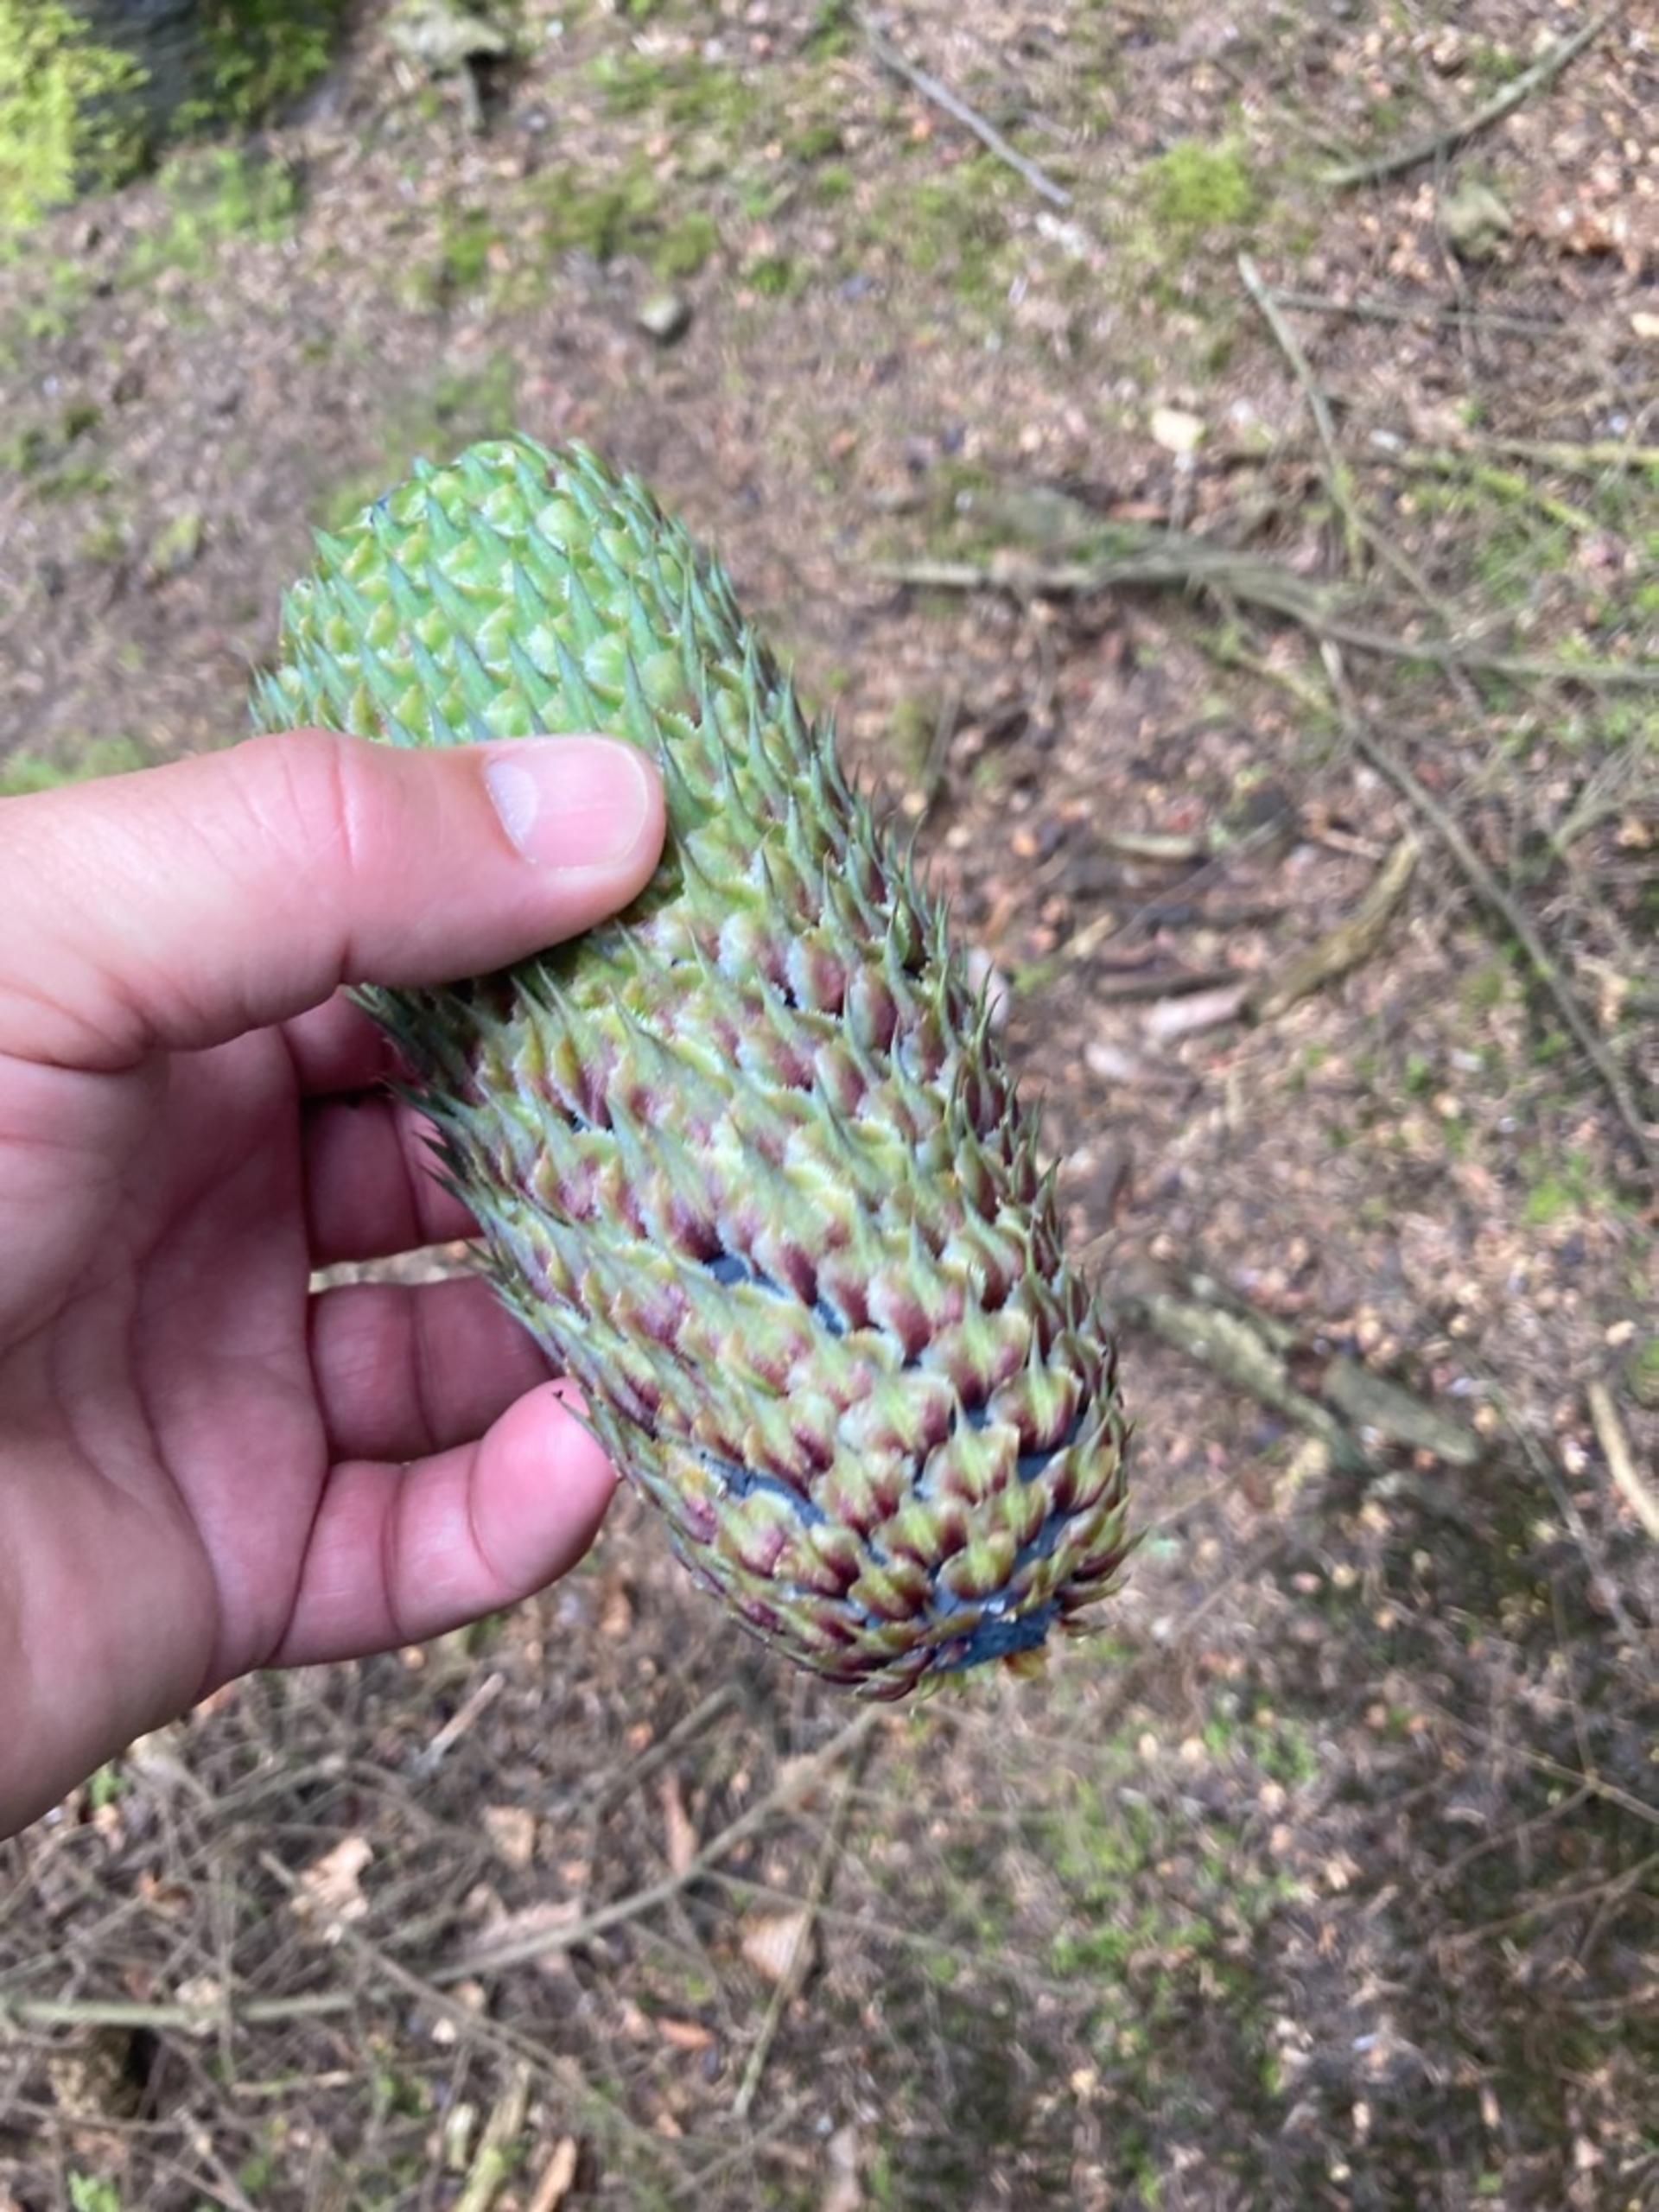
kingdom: Plantae
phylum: Tracheophyta
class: Pinopsida
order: Pinales
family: Pinaceae
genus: Abies
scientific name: Abies alba
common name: Almindelig ædelgran
